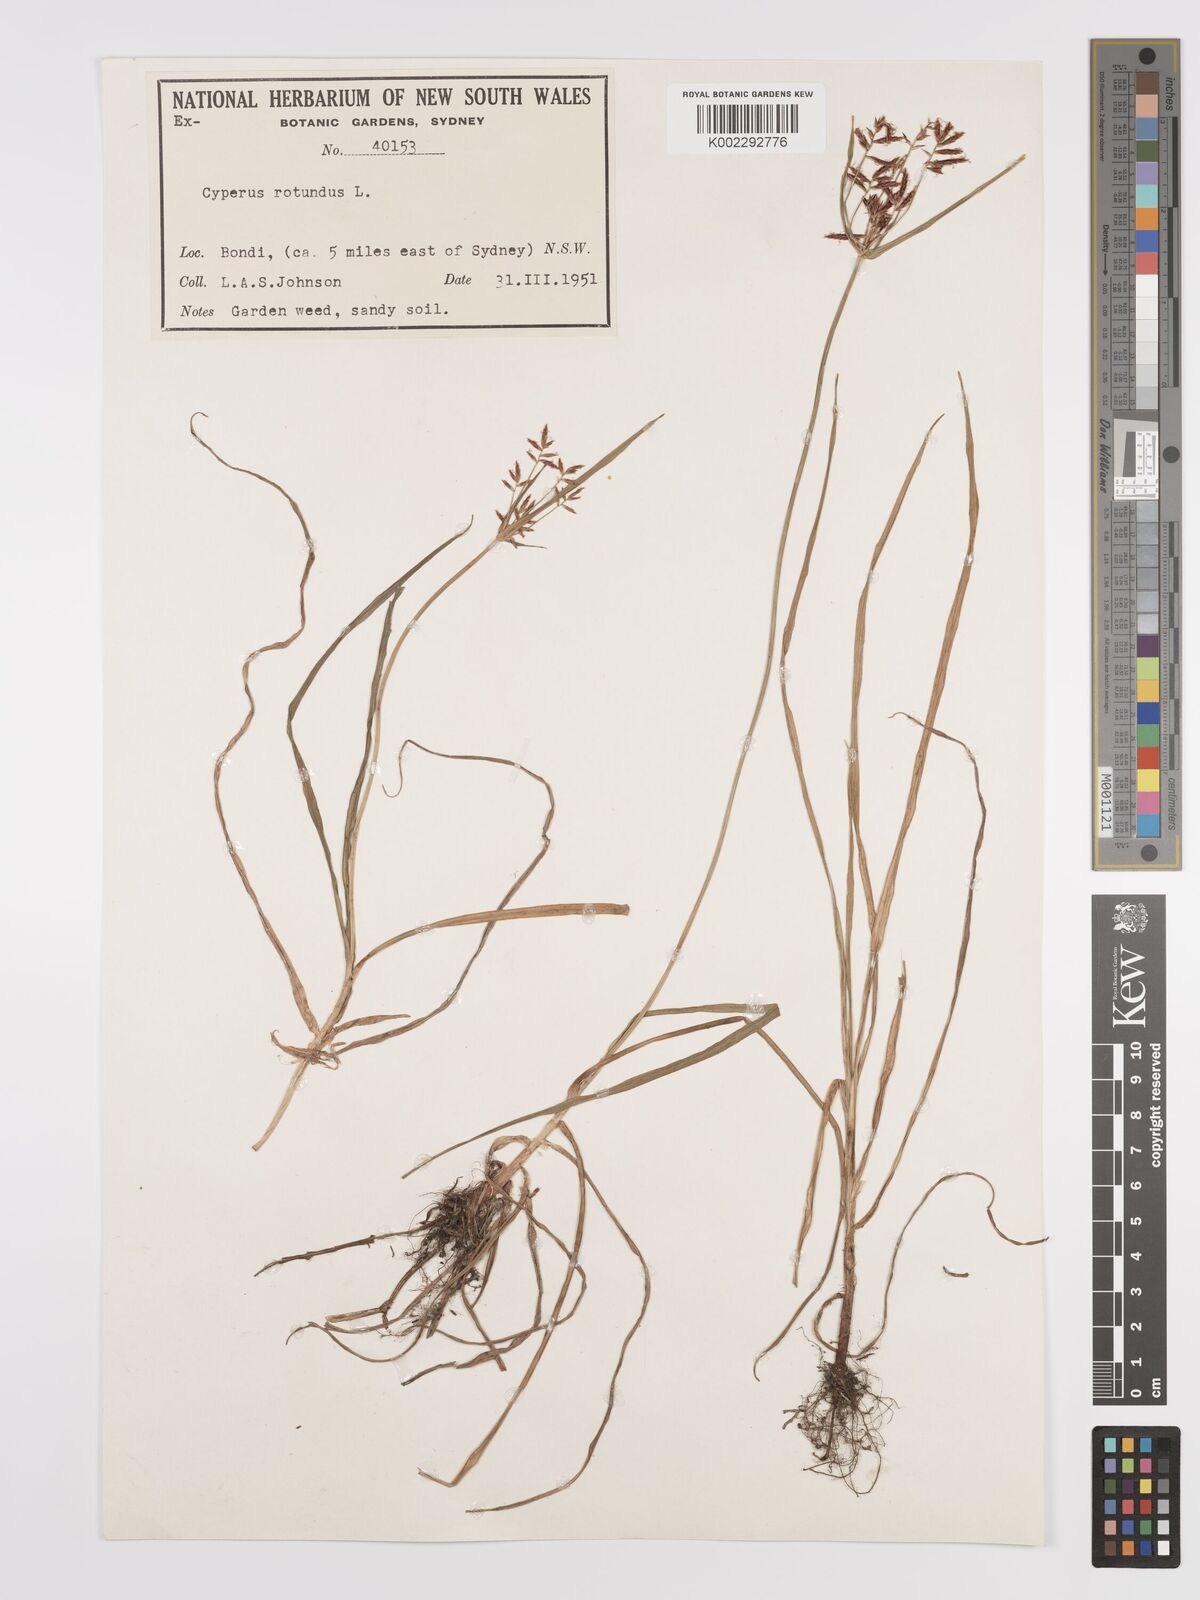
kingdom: Plantae
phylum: Tracheophyta
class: Liliopsida
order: Poales
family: Cyperaceae
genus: Cyperus
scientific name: Cyperus rotundus
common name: Nutgrass
